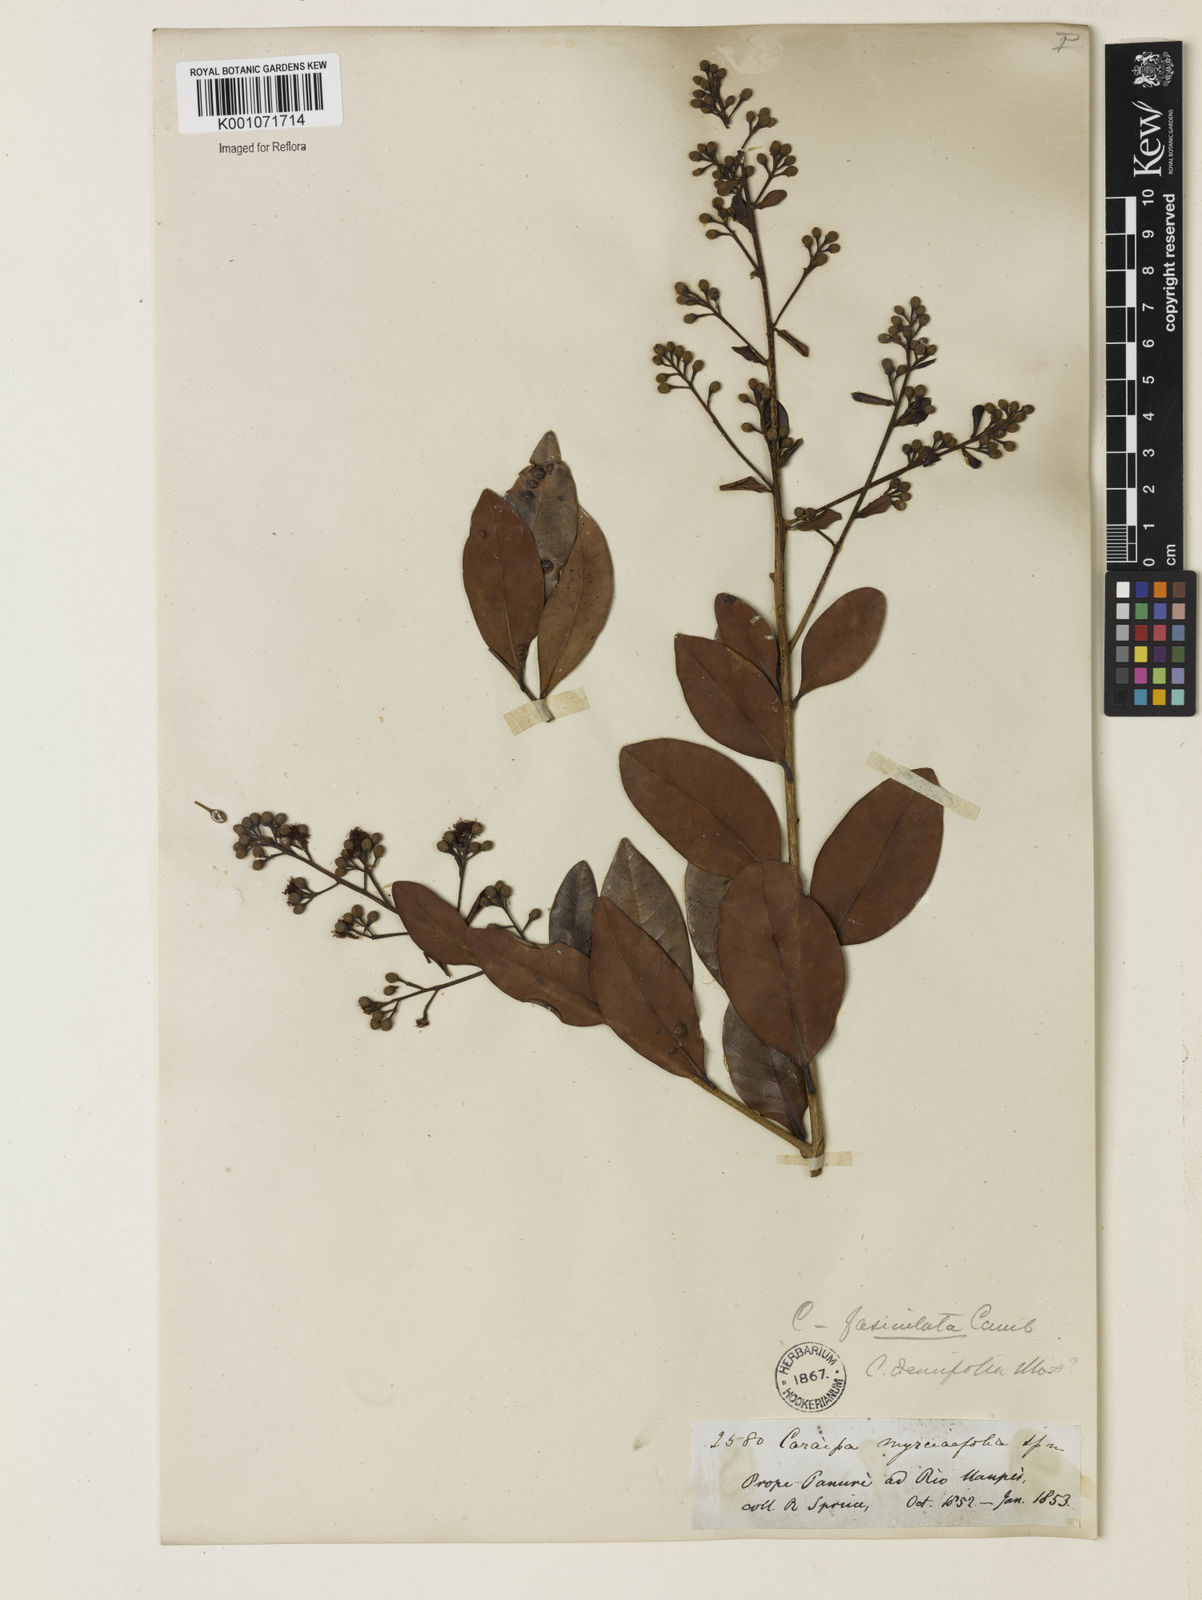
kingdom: Plantae
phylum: Tracheophyta
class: Magnoliopsida
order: Malpighiales
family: Calophyllaceae
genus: Caraipa
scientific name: Caraipa densifolia
